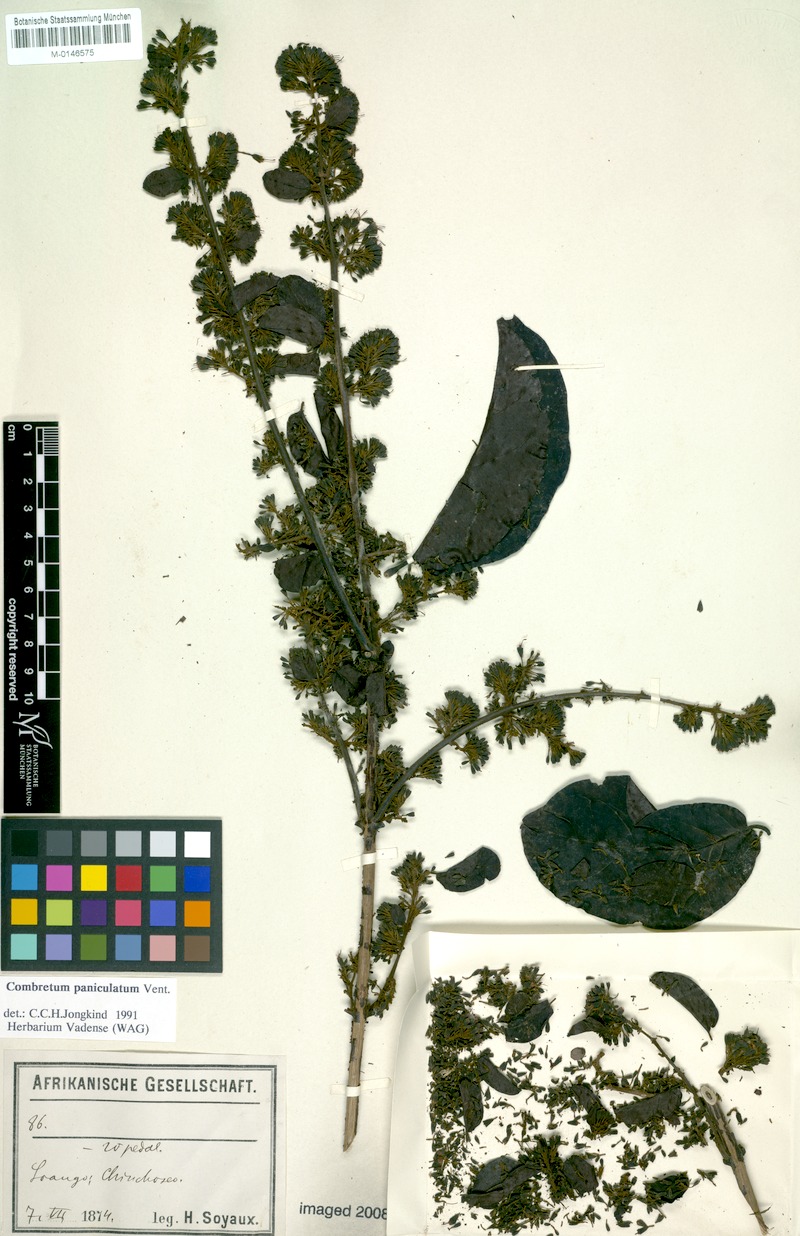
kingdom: Plantae
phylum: Tracheophyta
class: Magnoliopsida
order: Myrtales
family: Combretaceae
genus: Combretum
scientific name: Combretum paniculatum
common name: Fire vine
